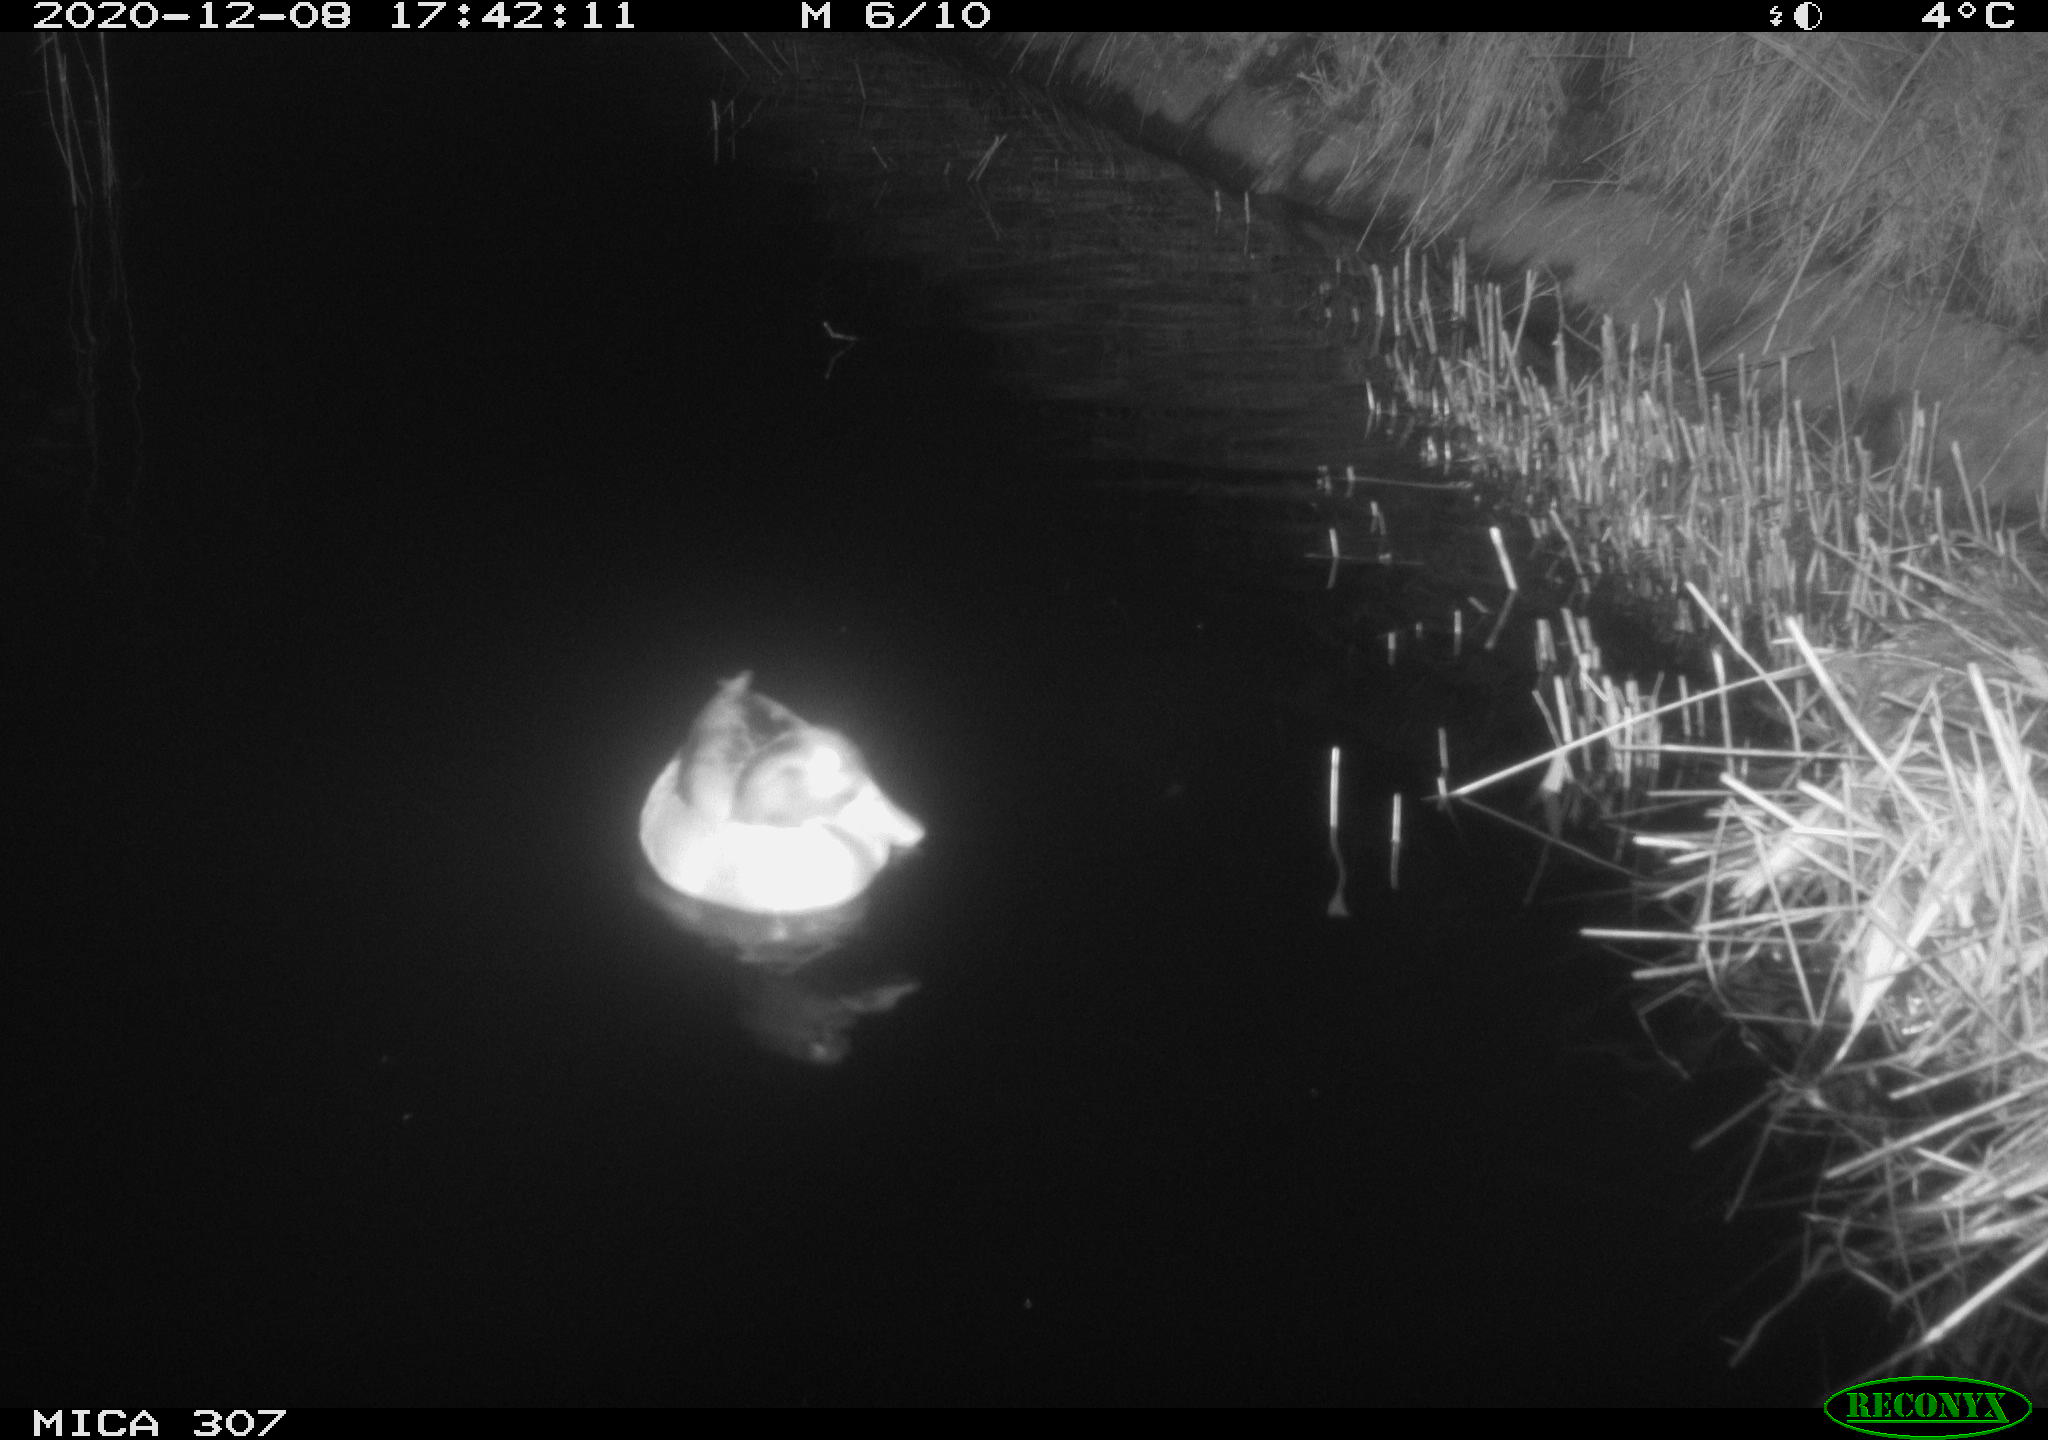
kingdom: Animalia
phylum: Chordata
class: Aves
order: Anseriformes
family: Anatidae
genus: Anas
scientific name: Anas platyrhynchos
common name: Mallard
